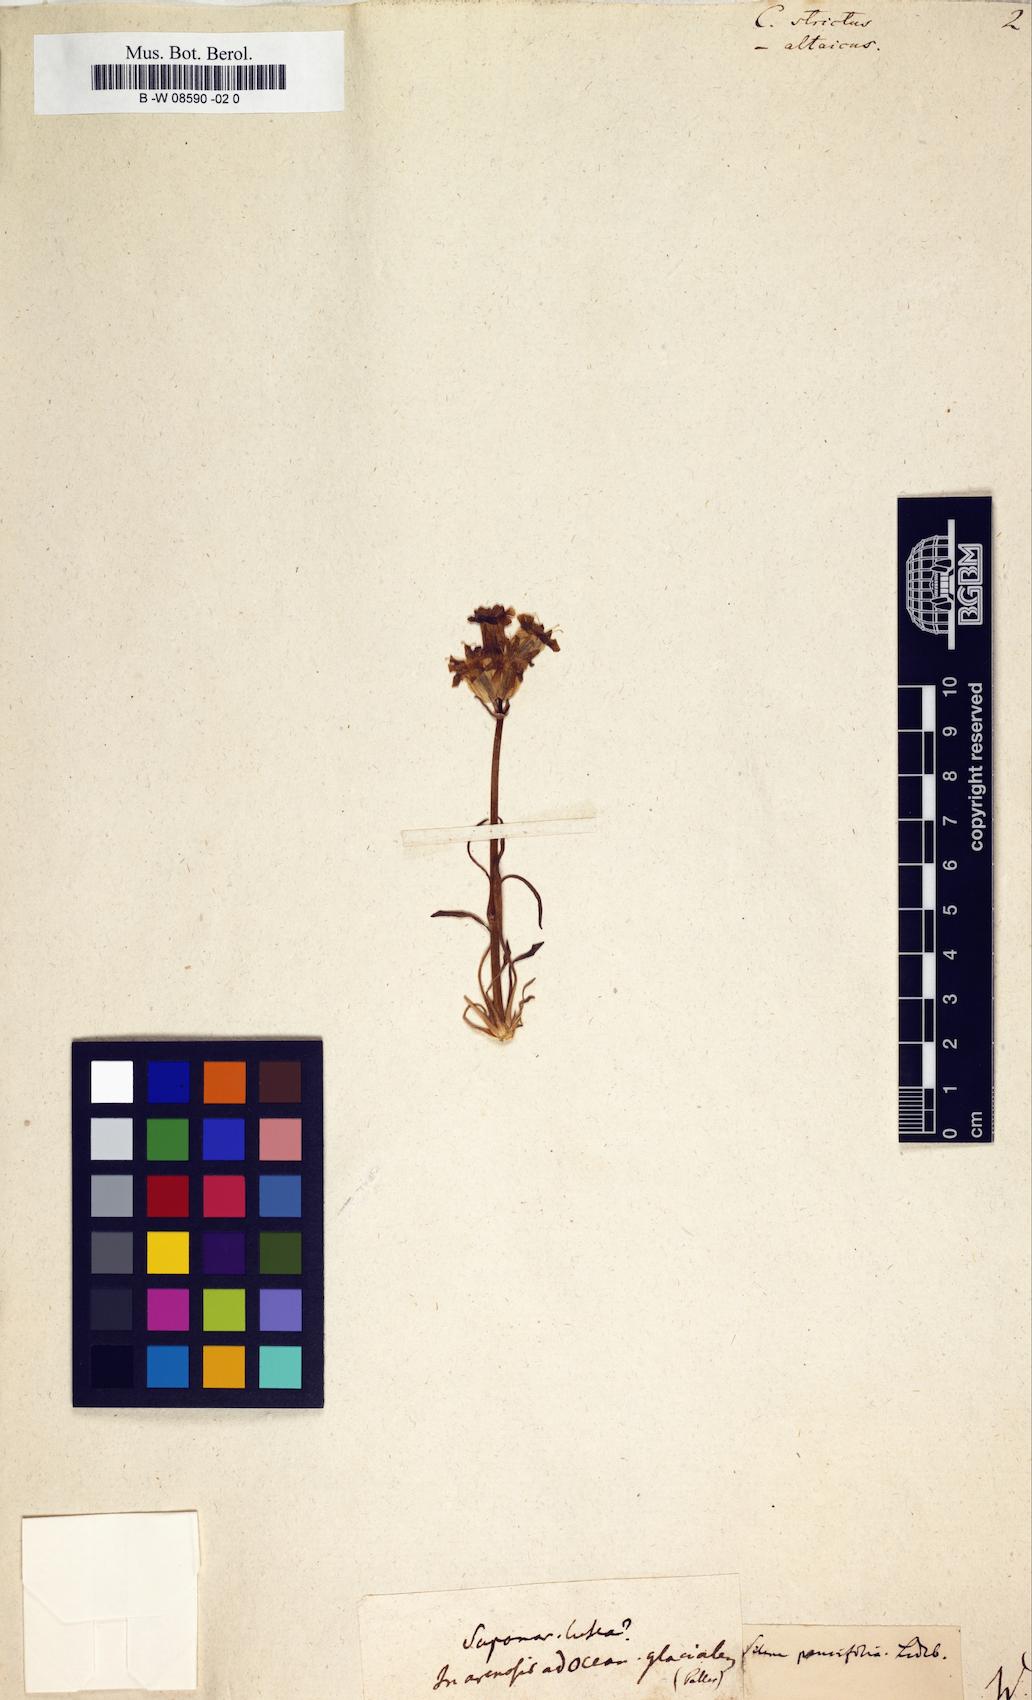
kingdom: Plantae
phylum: Tracheophyta
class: Magnoliopsida
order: Caryophyllales
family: Caryophyllaceae
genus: Silene
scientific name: Silene chamarensis
